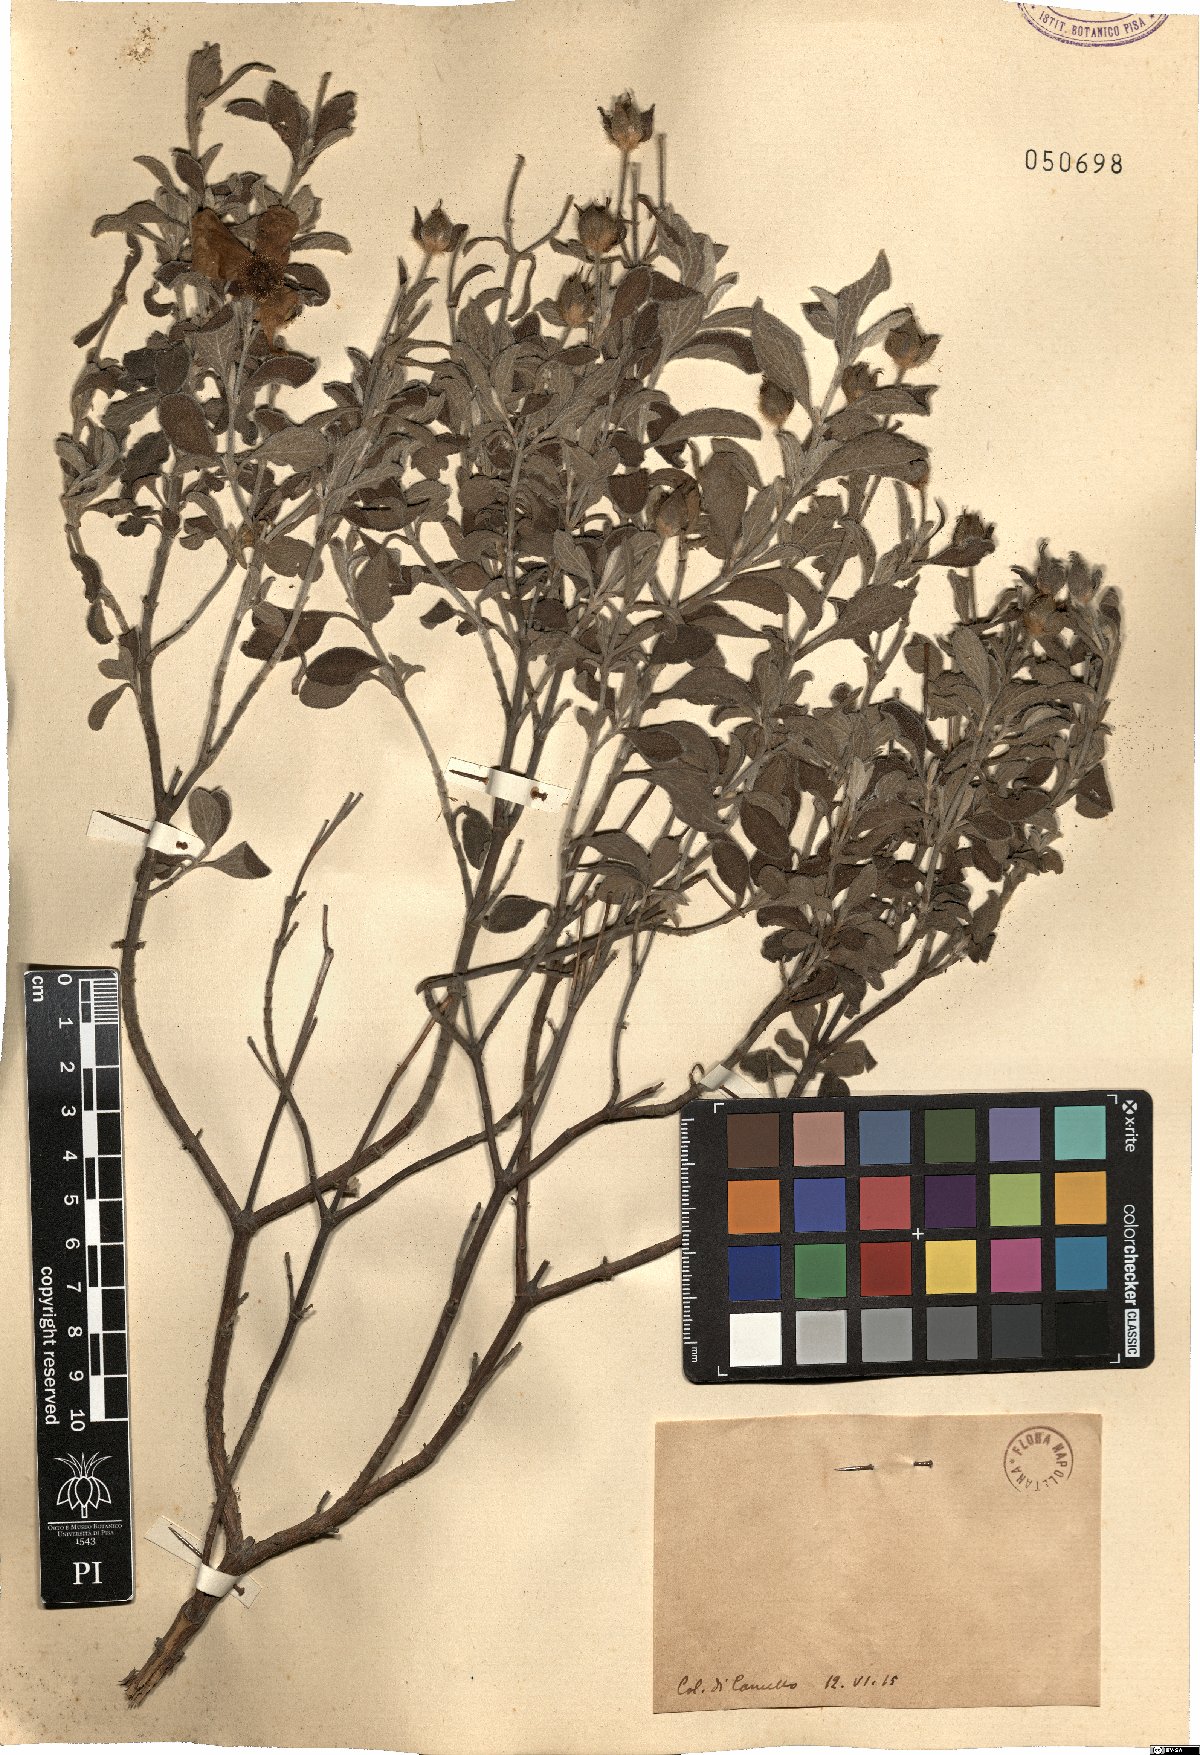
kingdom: Plantae
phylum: Tracheophyta
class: Magnoliopsida
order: Malvales
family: Cistaceae
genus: Cistus
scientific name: Cistus
